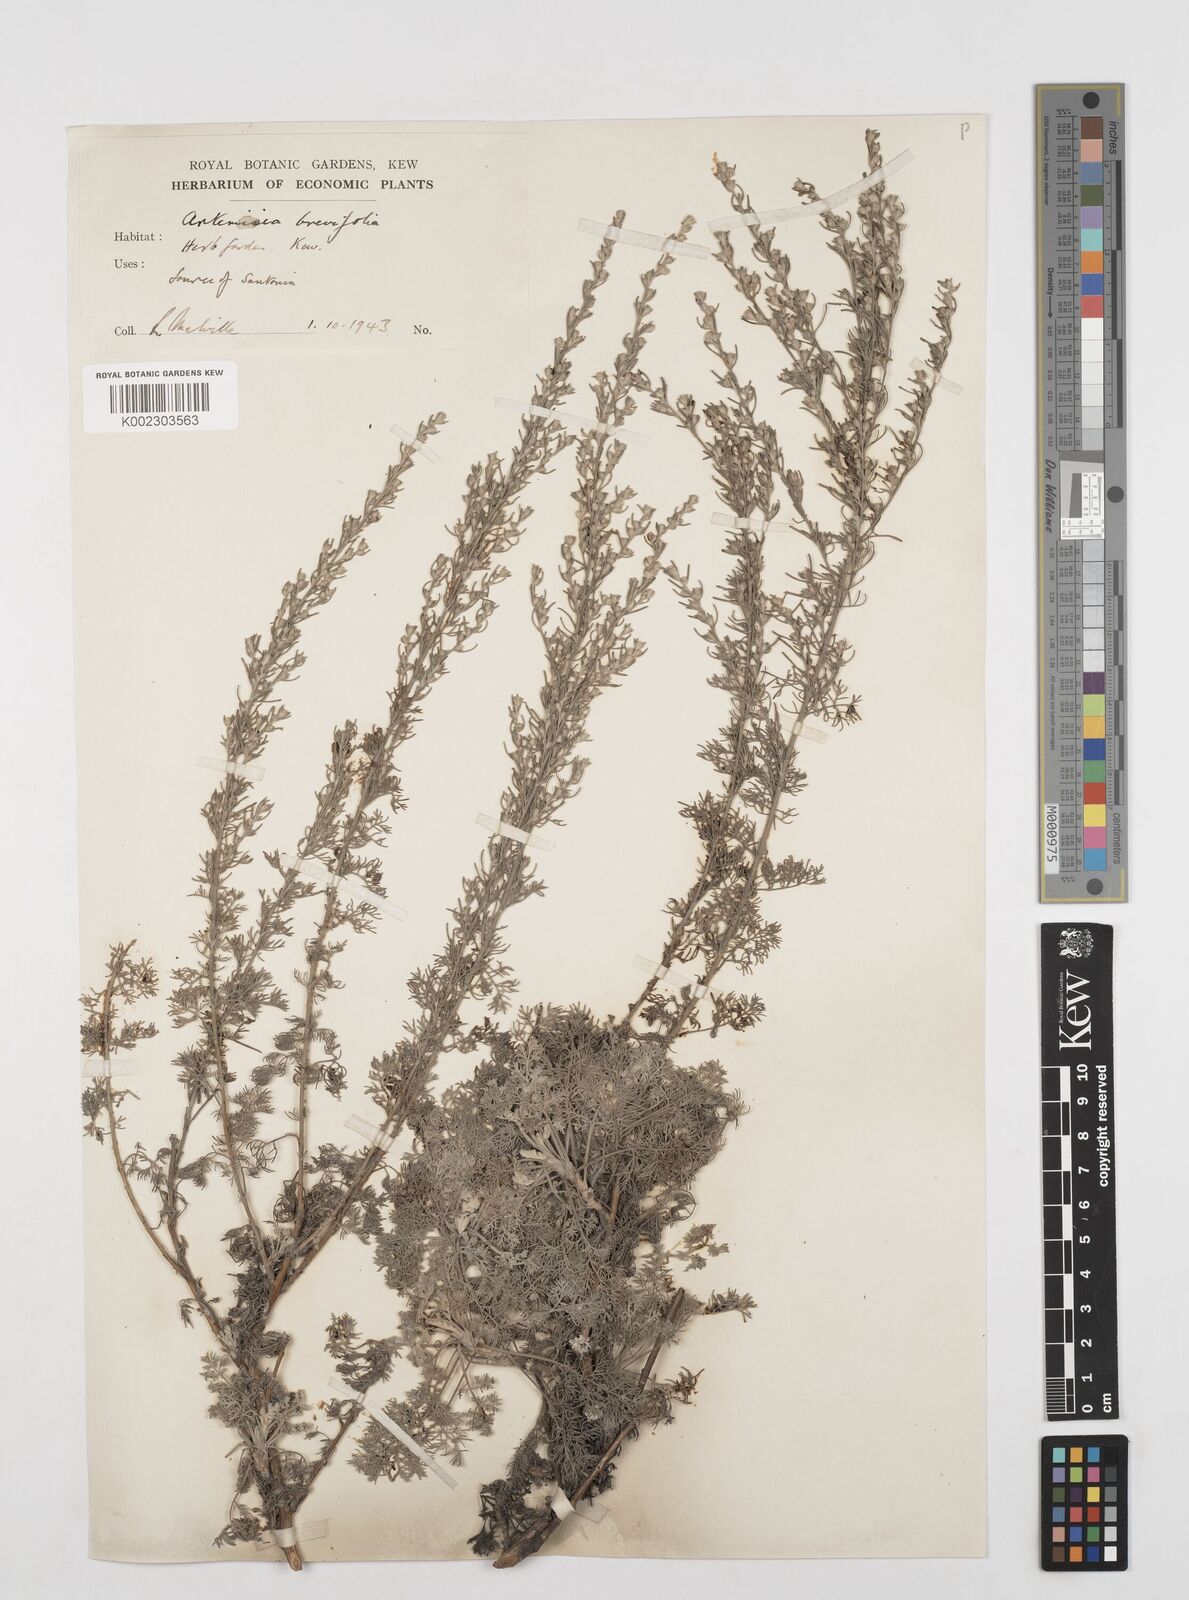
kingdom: Plantae
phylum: Tracheophyta
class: Magnoliopsida
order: Asterales
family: Asteraceae
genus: Artemisia
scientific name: Artemisia brevifolia
